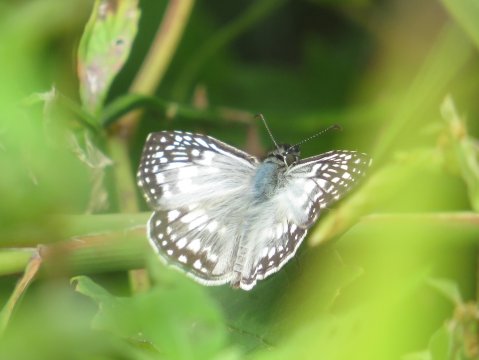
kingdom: Animalia
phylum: Arthropoda
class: Insecta
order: Lepidoptera
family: Hesperiidae
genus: Pyrgus
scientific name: Pyrgus oileus
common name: Tropical Checkered-Skipper
